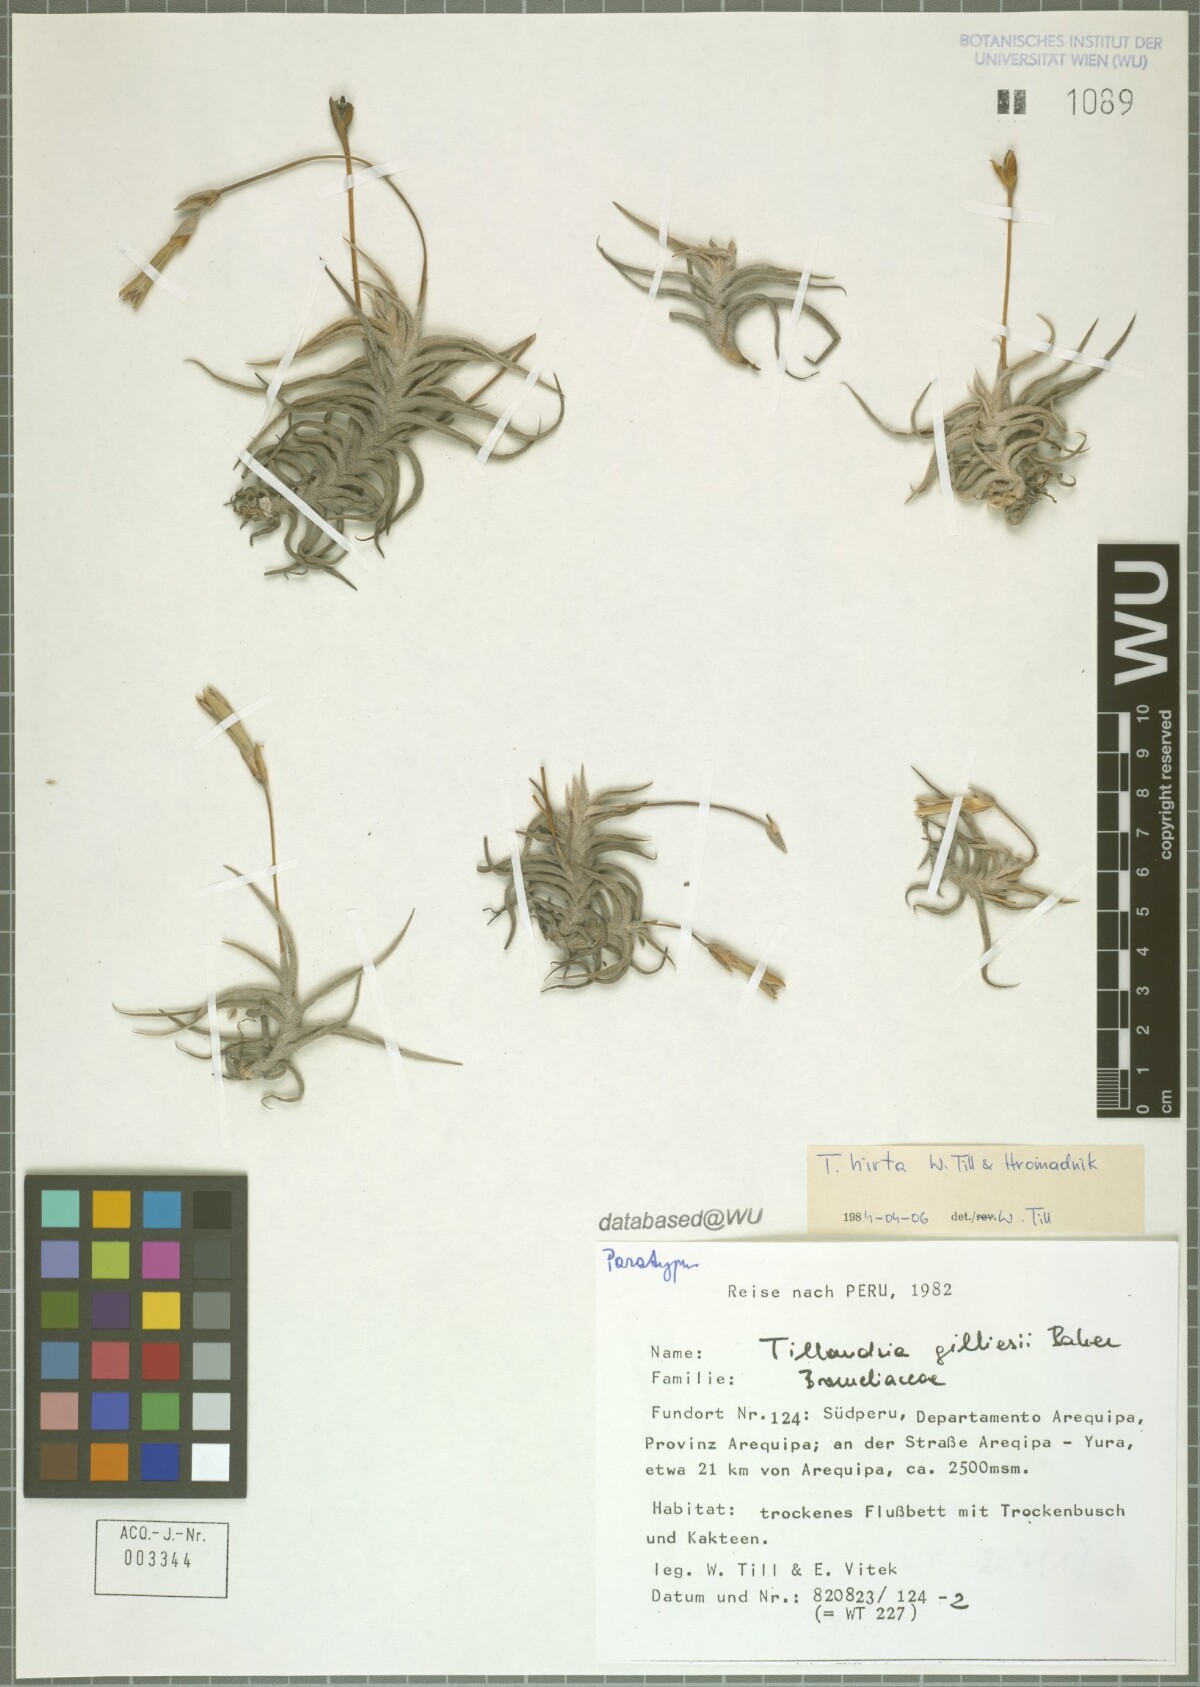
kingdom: Plantae
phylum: Tracheophyta
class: Liliopsida
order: Poales
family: Bromeliaceae
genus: Tillandsia
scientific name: Tillandsia hirta
